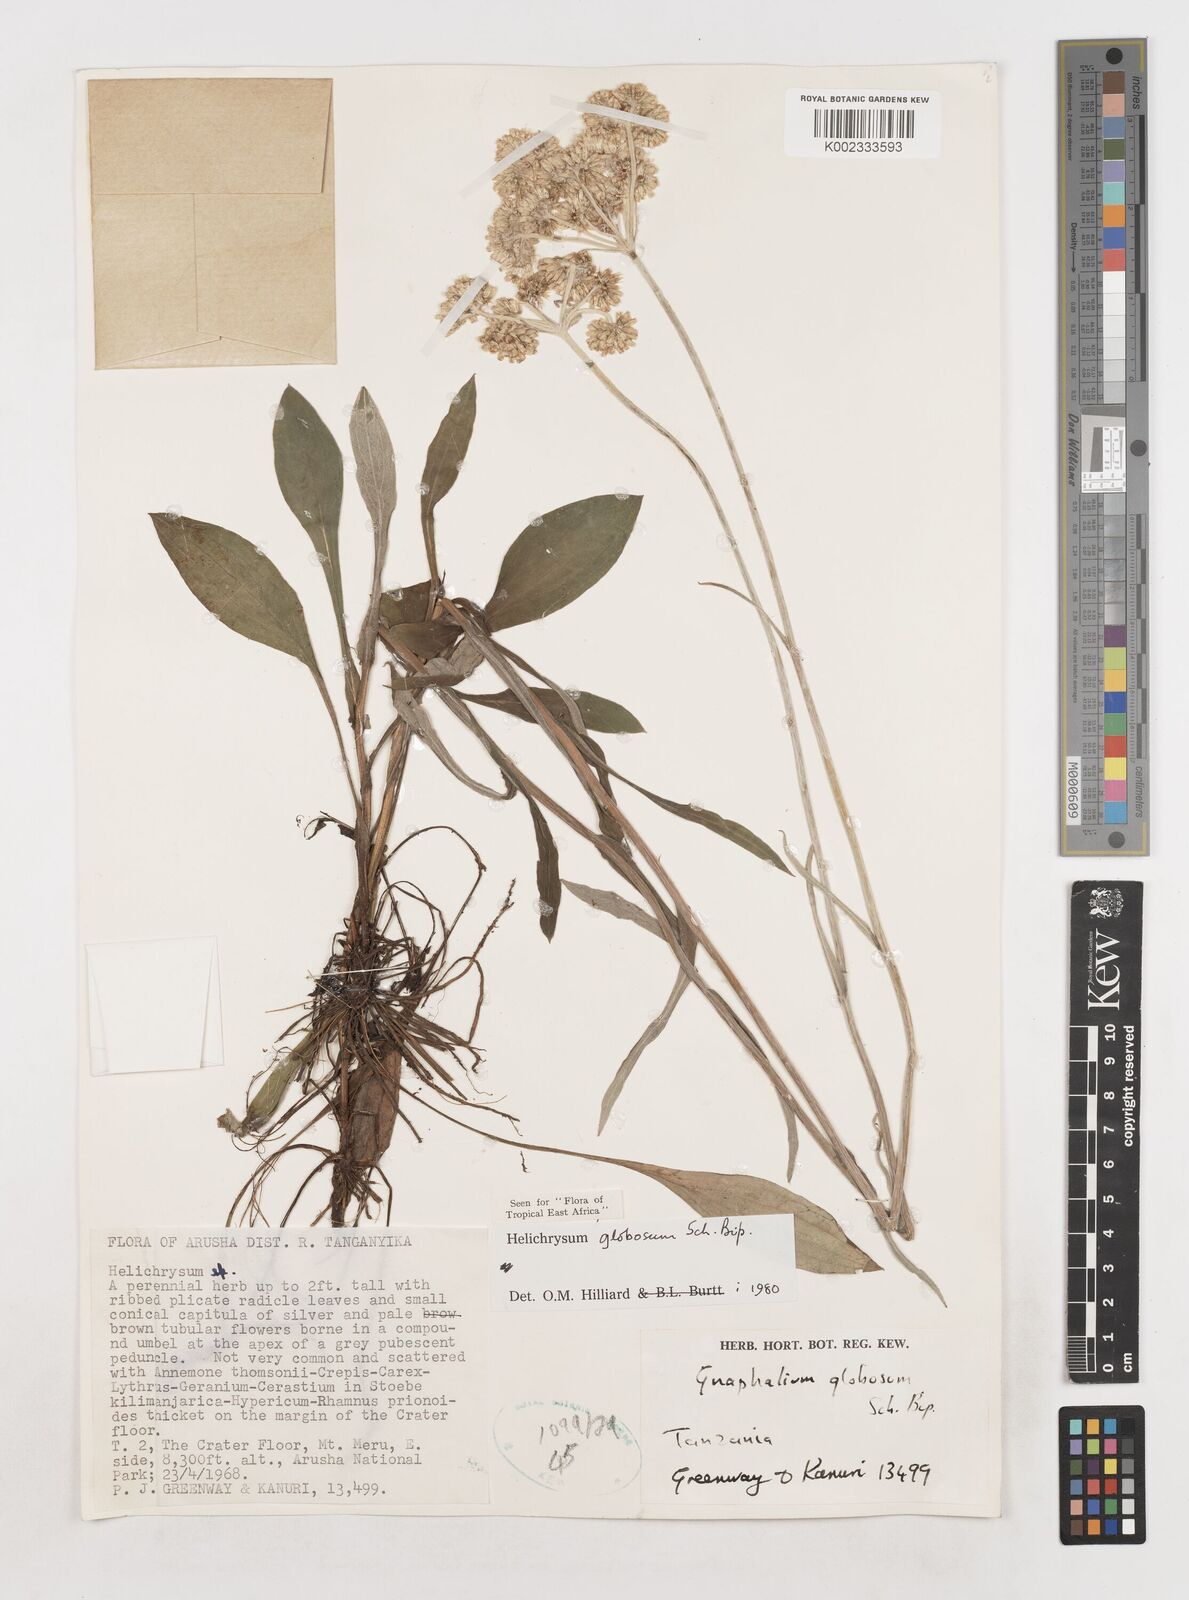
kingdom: Plantae
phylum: Tracheophyta
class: Magnoliopsida
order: Asterales
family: Asteraceae
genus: Helichrysum
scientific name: Helichrysum globosum
